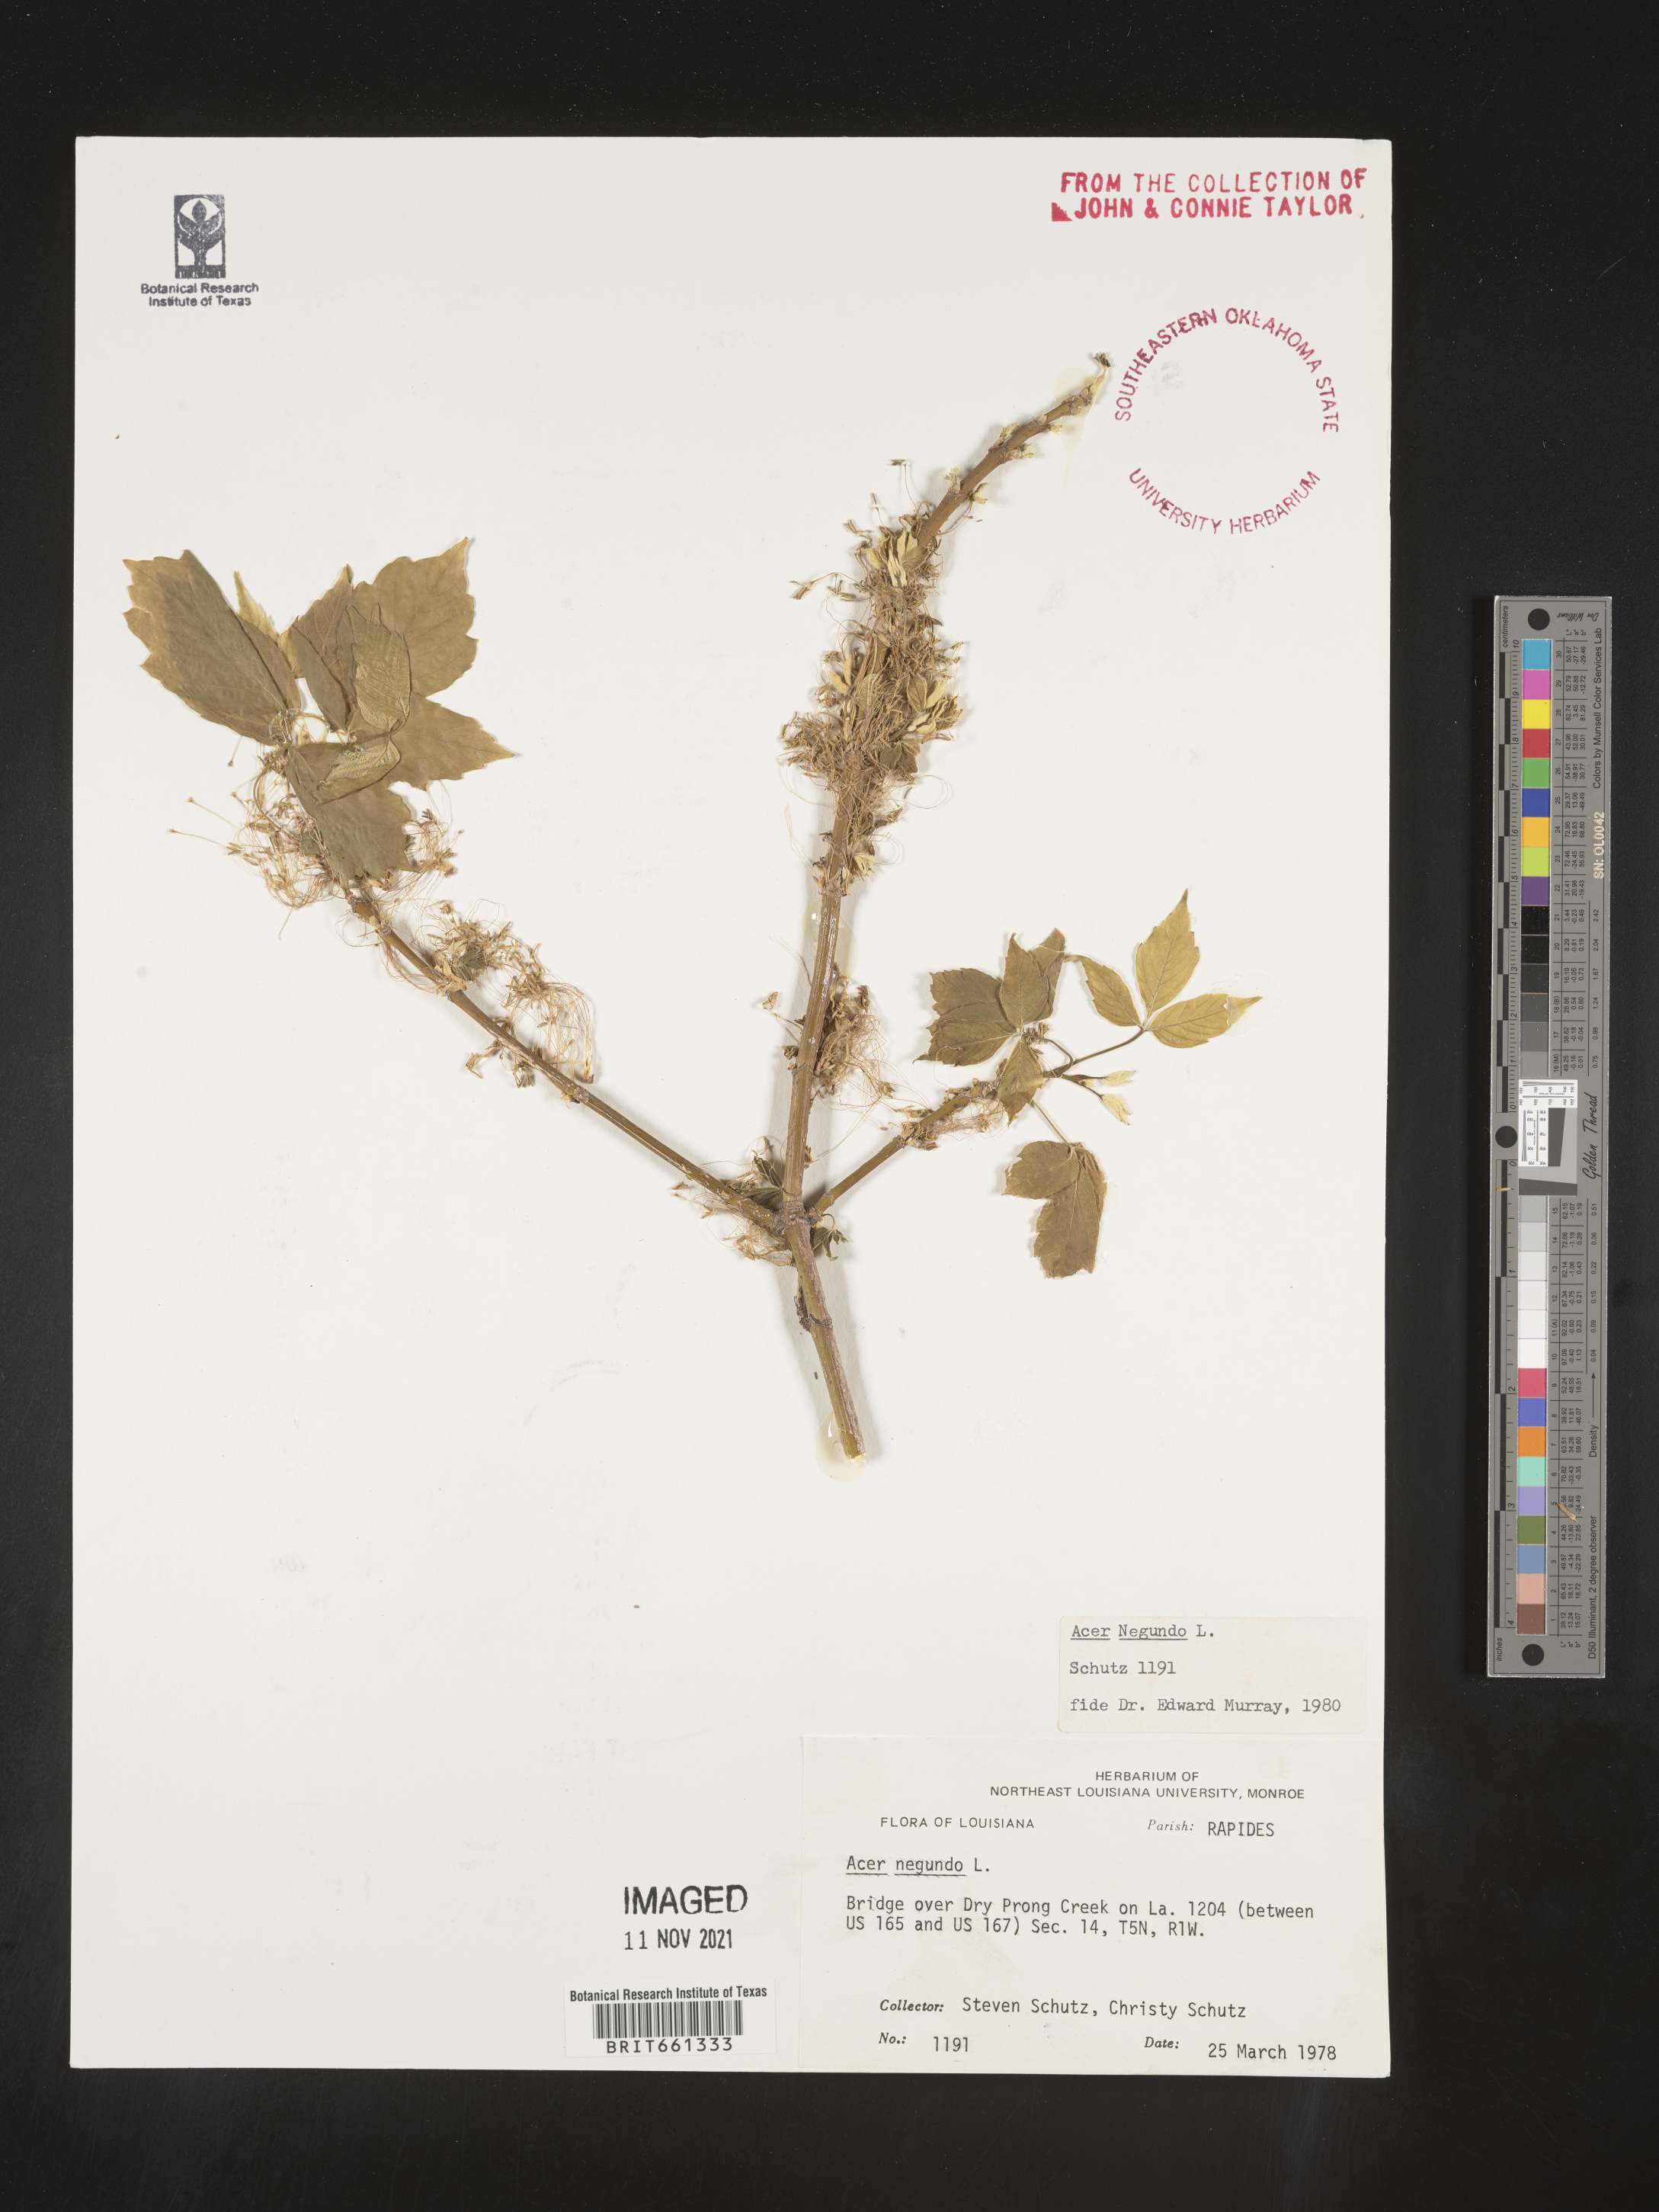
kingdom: Plantae
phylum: Tracheophyta
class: Magnoliopsida
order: Sapindales
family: Sapindaceae
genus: Acer
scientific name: Acer negundo
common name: Ashleaf maple
